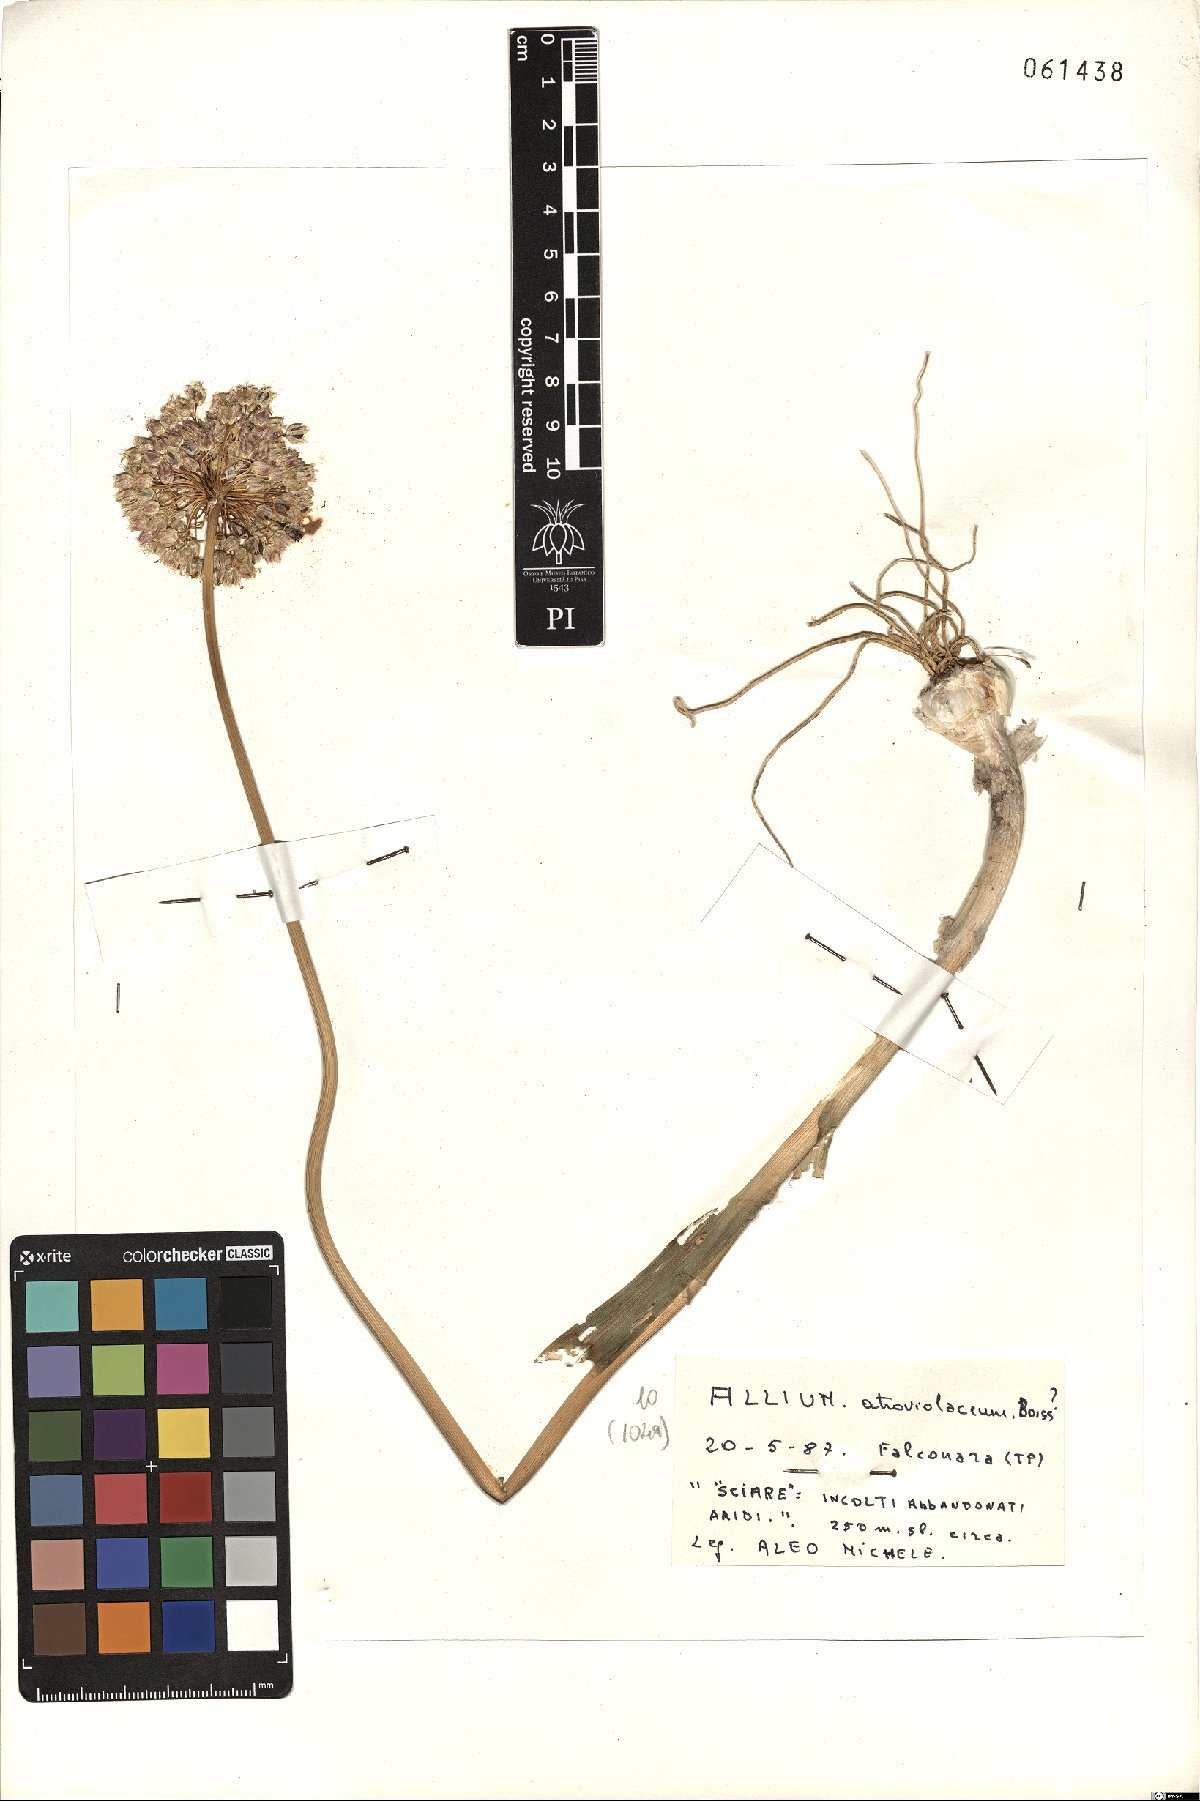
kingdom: Plantae
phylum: Tracheophyta
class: Liliopsida
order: Asparagales
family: Amaryllidaceae
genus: Allium
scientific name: Allium atroviolaceum
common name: Broadleaf wild leek
